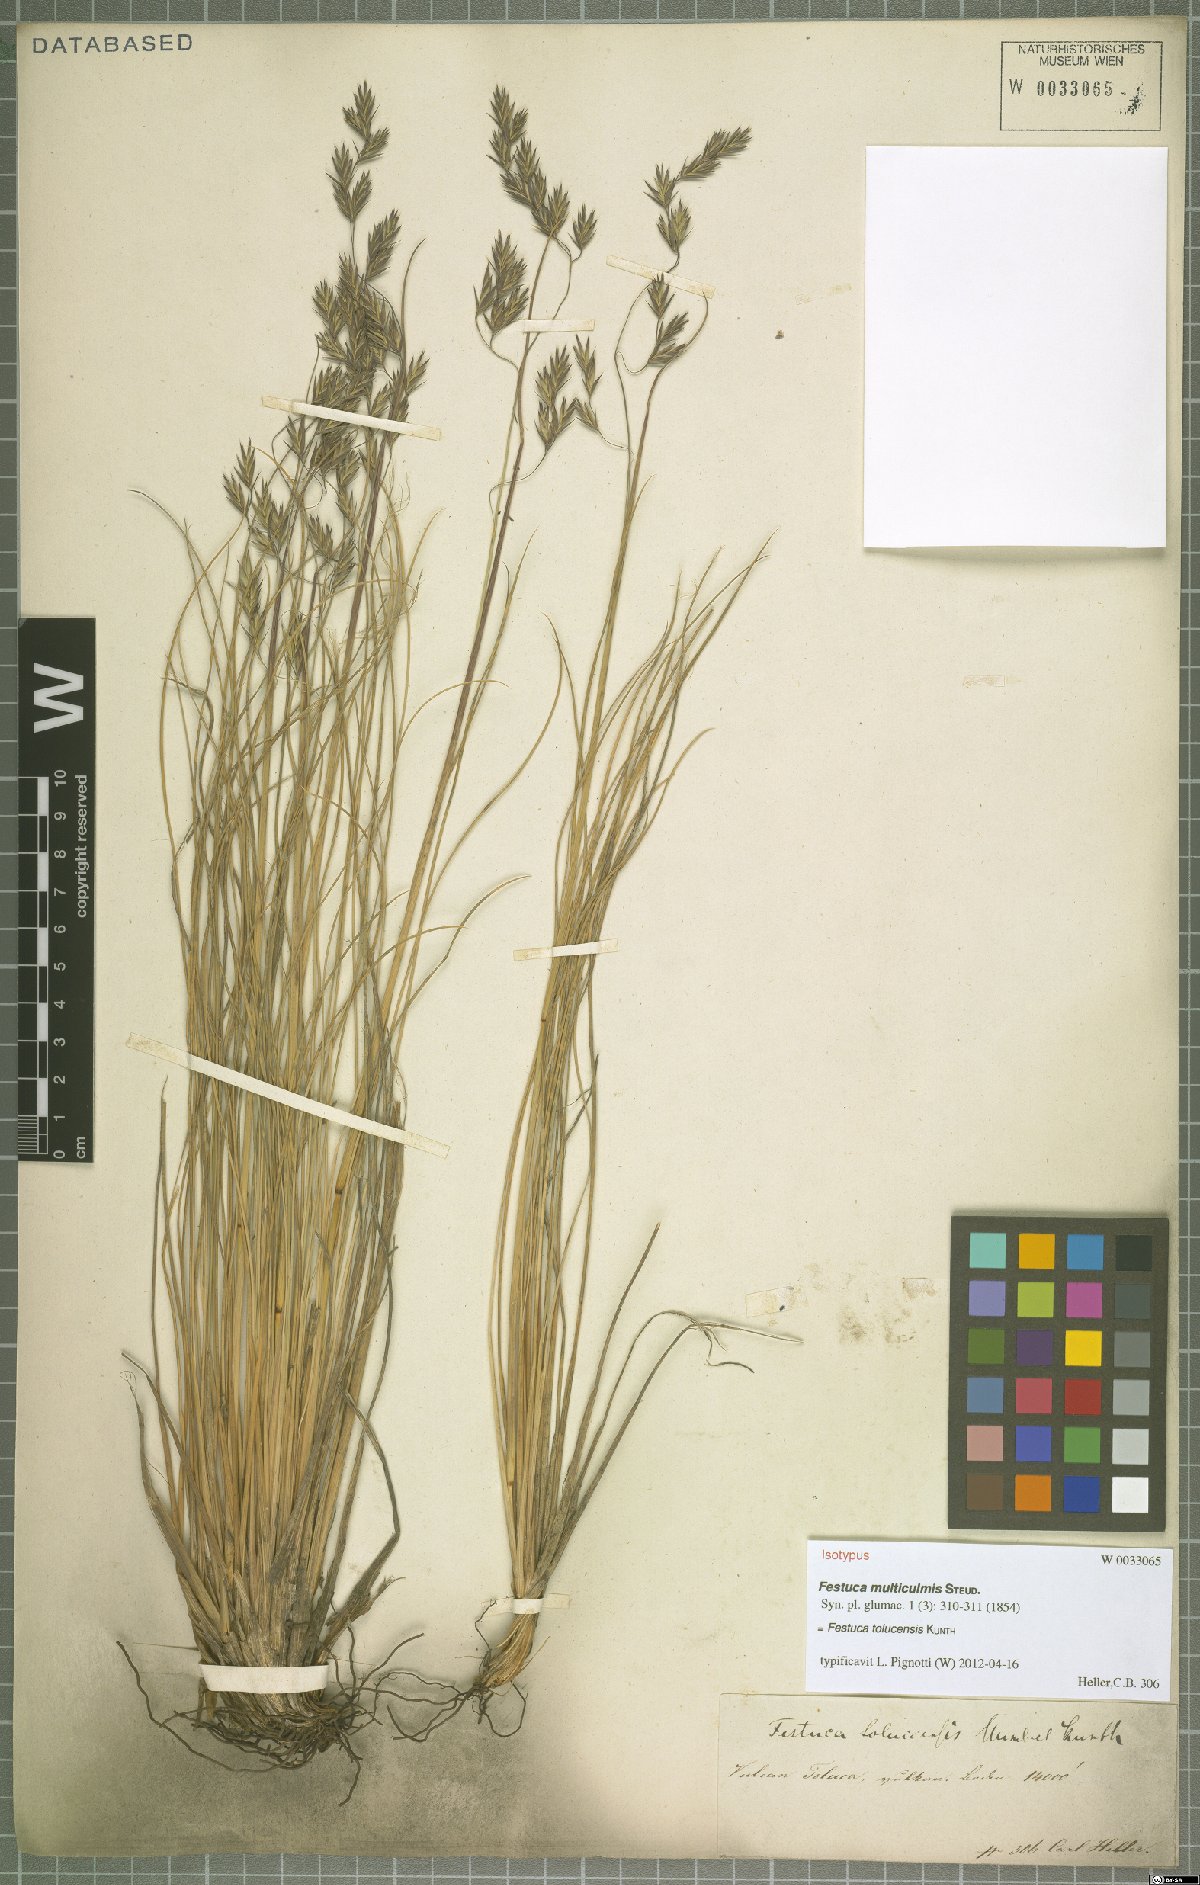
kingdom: Plantae
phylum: Tracheophyta
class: Liliopsida
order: Poales
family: Poaceae
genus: Festuca
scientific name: Festuca tolucensis
